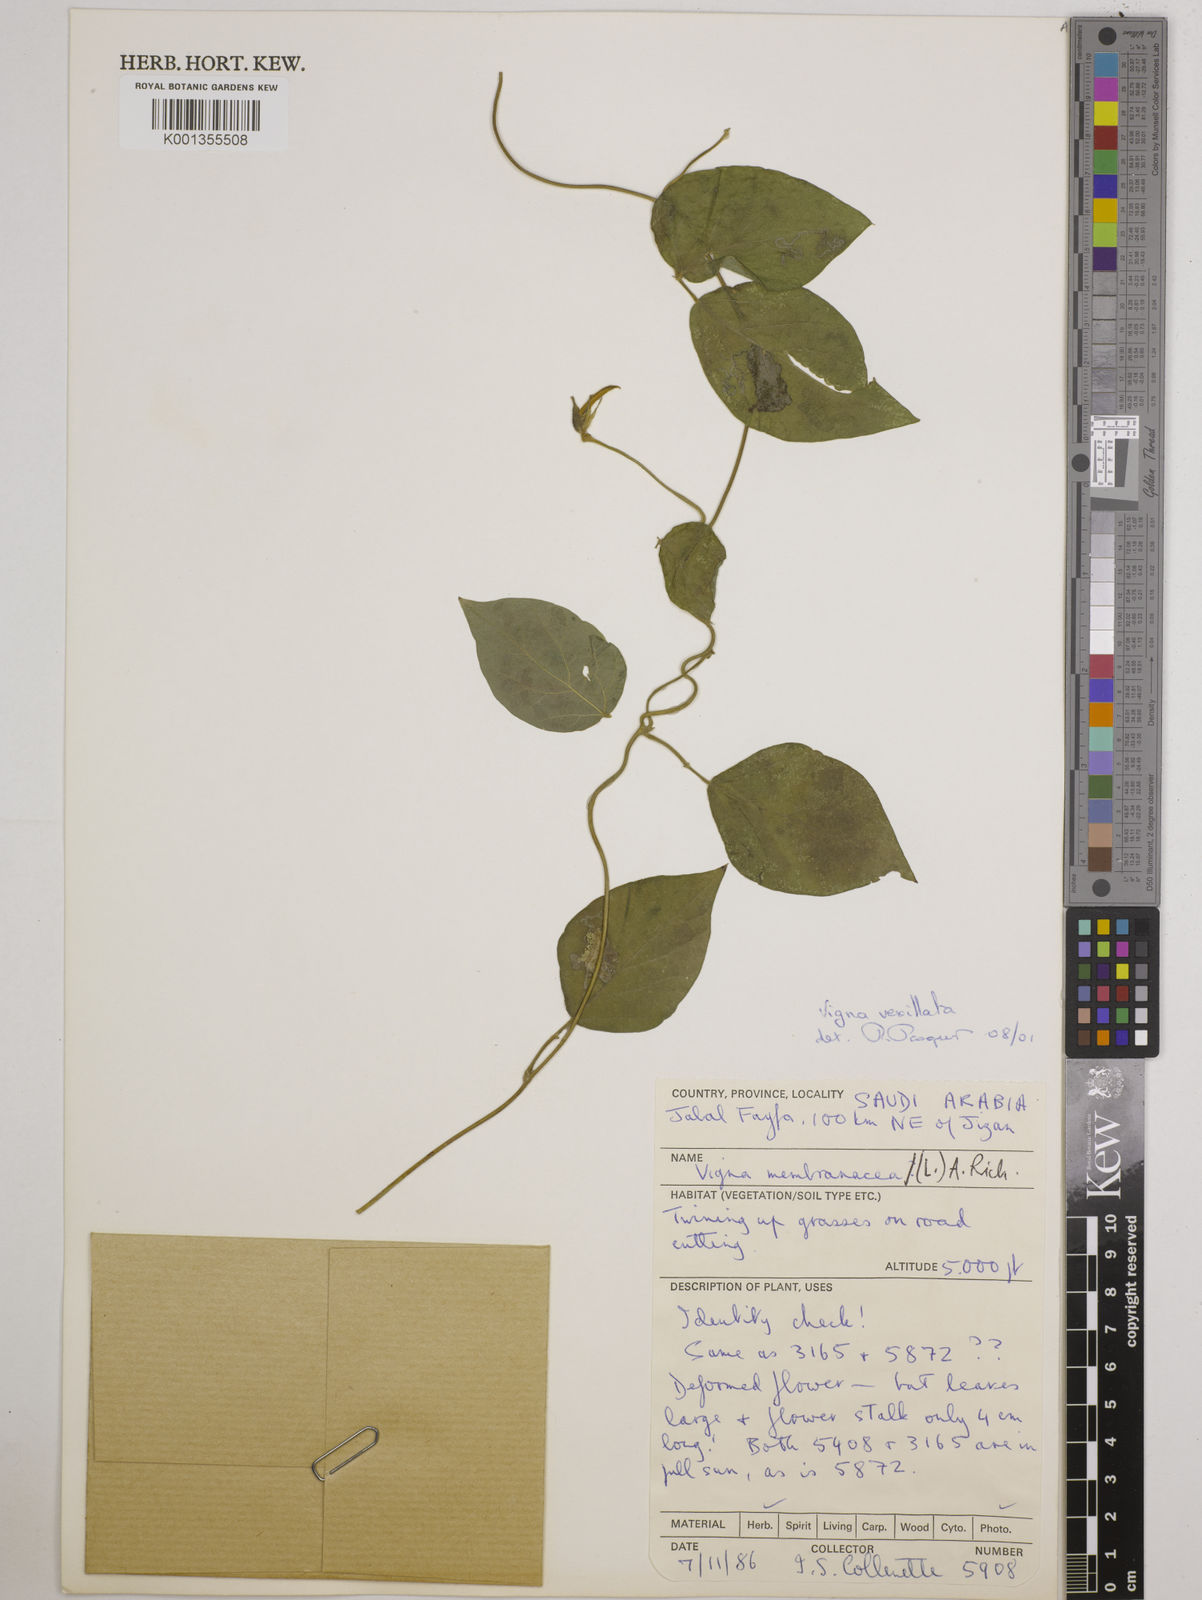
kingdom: Plantae
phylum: Tracheophyta
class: Magnoliopsida
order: Fabales
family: Fabaceae
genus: Vigna
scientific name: Vigna vexillata
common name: Zombi pea
